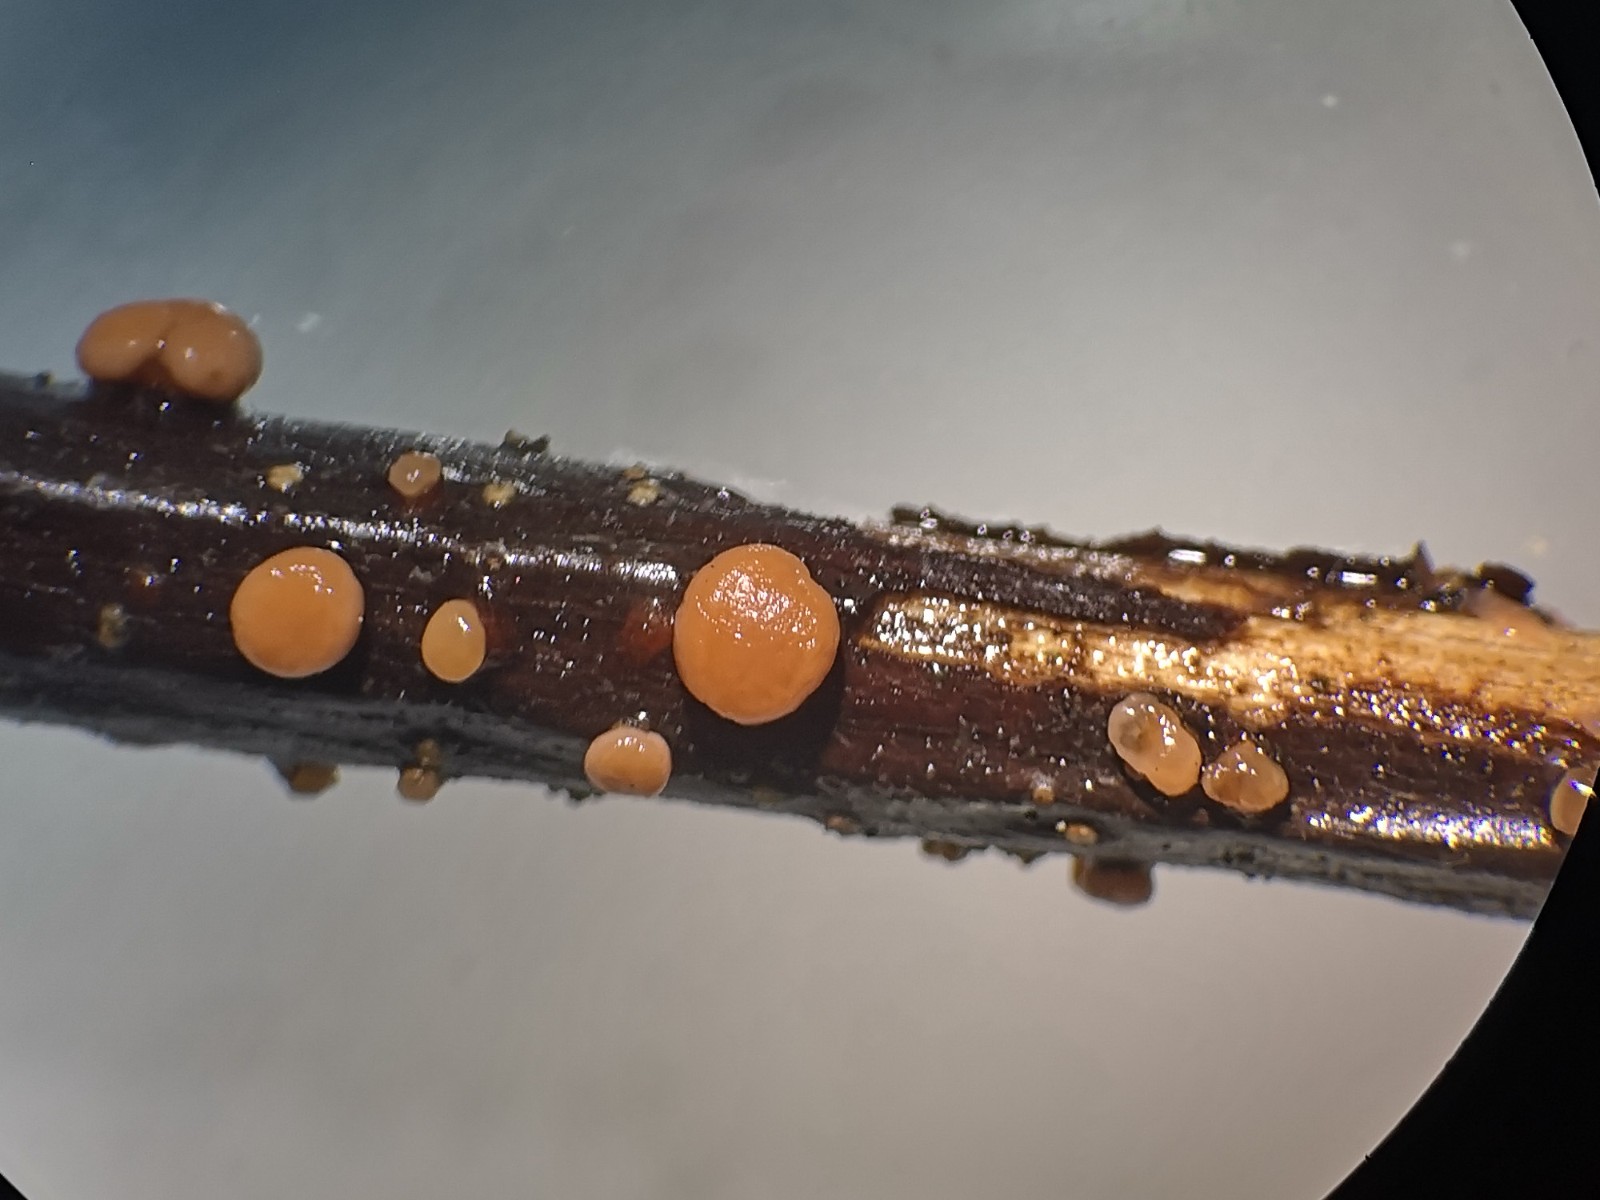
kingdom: Fungi
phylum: Ascomycota
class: Sordariomycetes
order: Hypocreales
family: Nectriaceae
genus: Nectria
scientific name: Nectria cinnabarina
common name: almindelig cinnobersvamp
